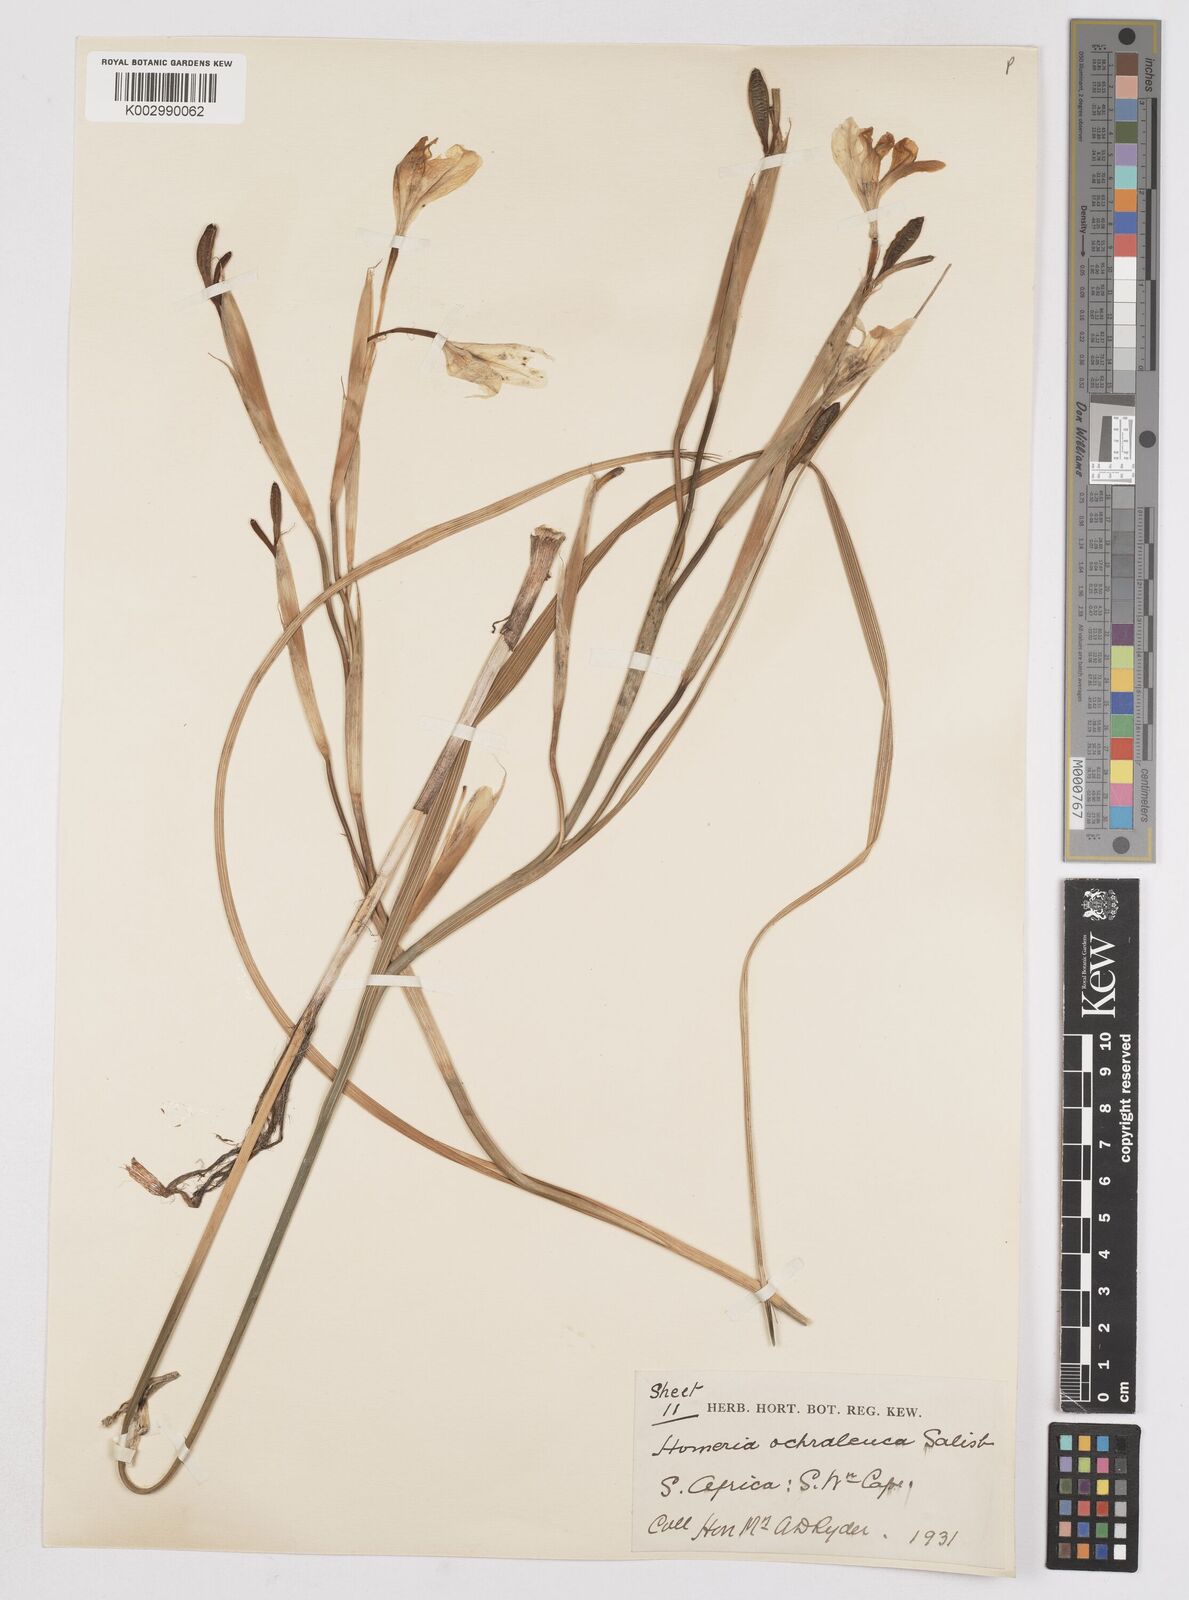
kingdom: Plantae
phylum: Tracheophyta
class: Liliopsida
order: Asparagales
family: Iridaceae
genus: Moraea
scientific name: Moraea ochroleuca
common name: Red tulp
